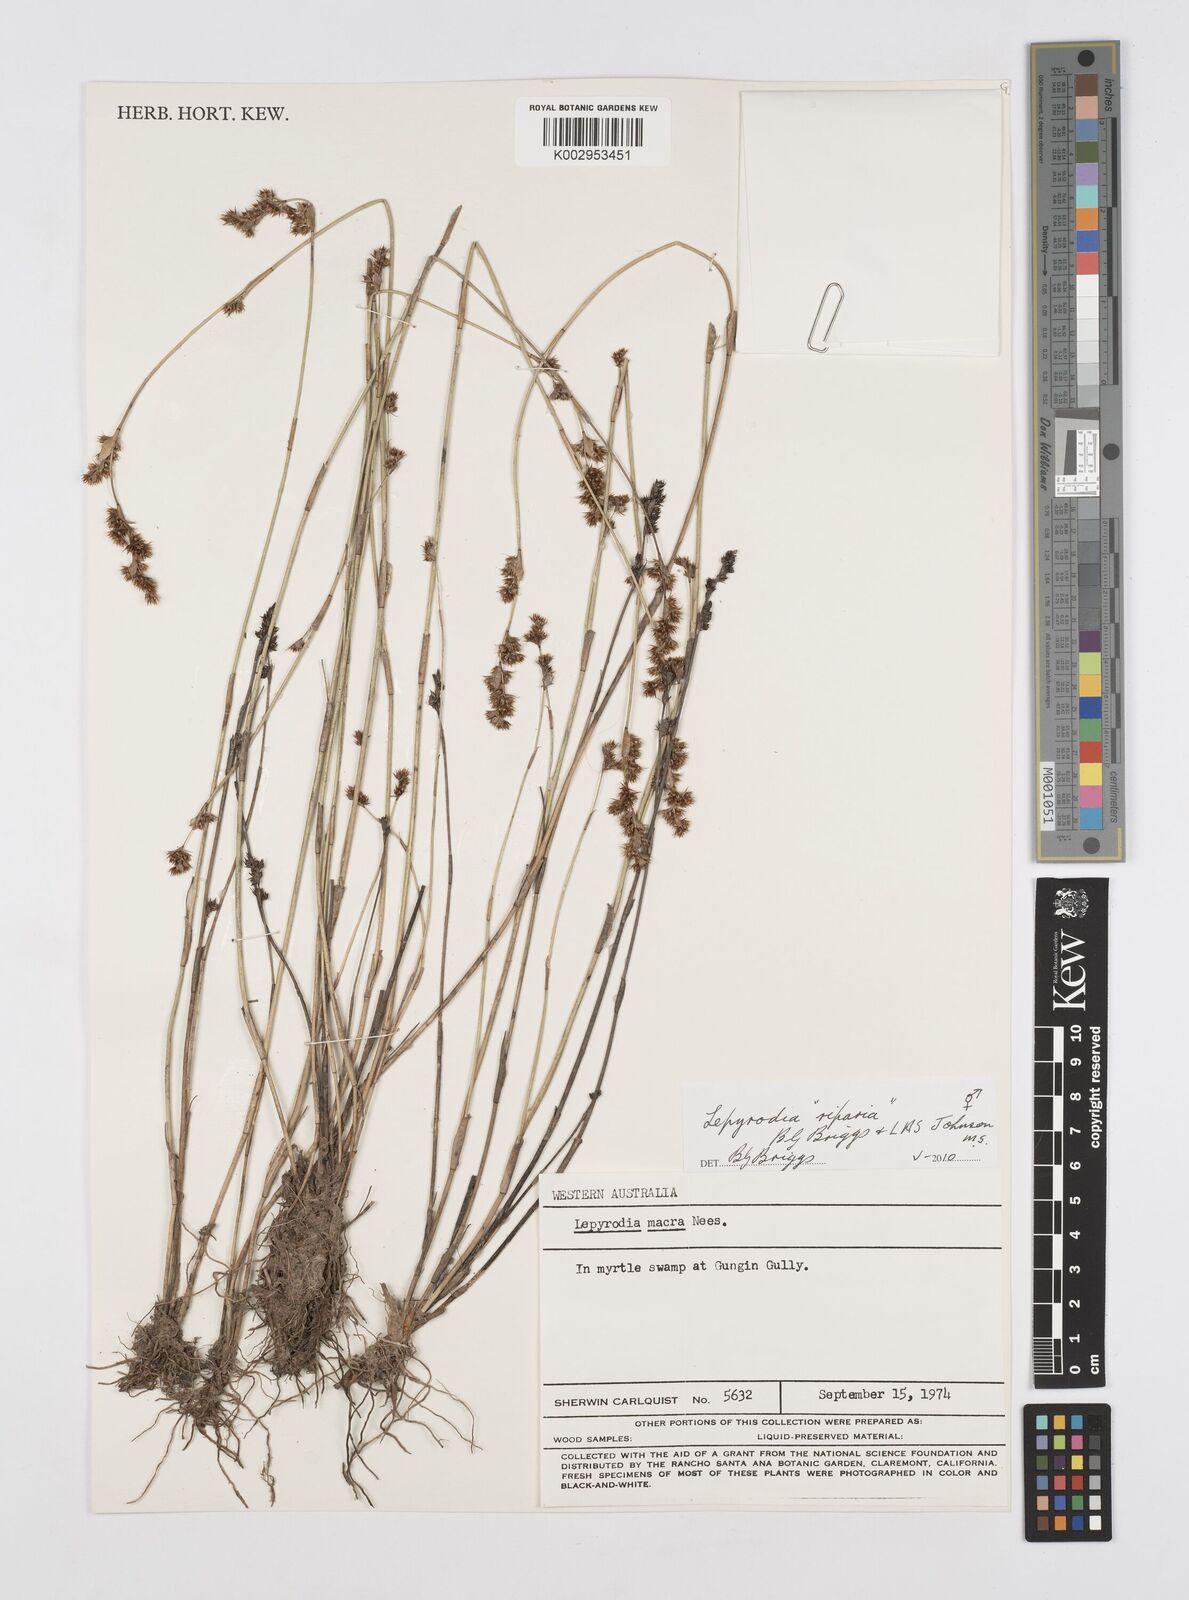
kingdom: Plantae
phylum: Tracheophyta
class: Liliopsida
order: Poales
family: Restionaceae
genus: Lepyrodia
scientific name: Lepyrodia riparia
